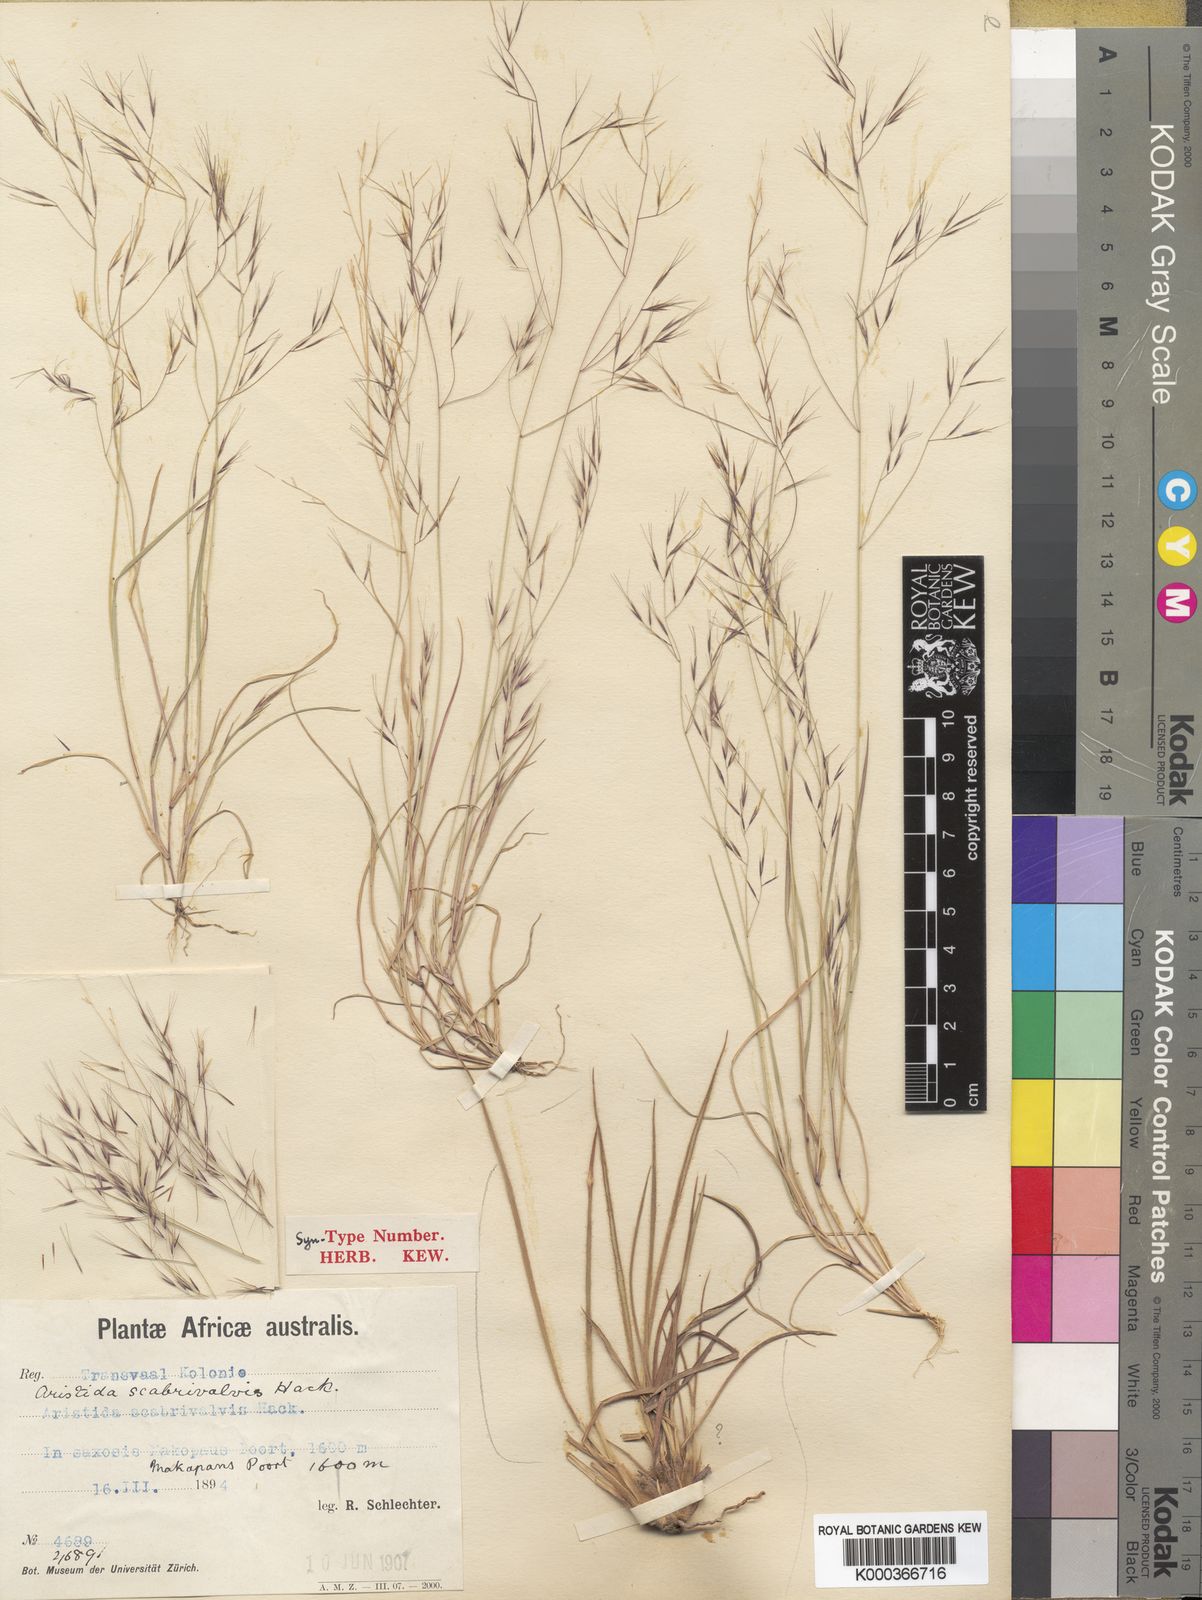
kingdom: Plantae
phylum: Tracheophyta
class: Liliopsida
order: Poales
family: Poaceae
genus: Aristida
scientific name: Aristida scabrivalvis
